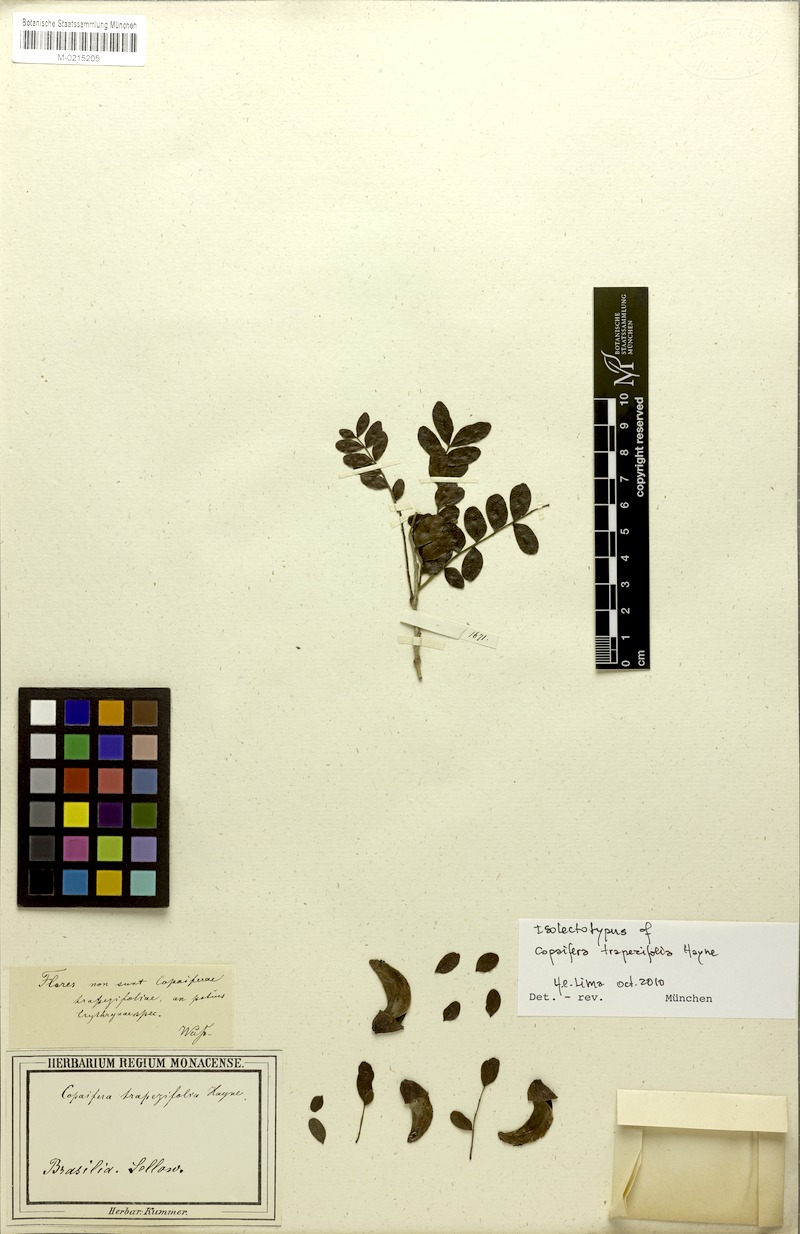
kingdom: Plantae
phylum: Tracheophyta
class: Magnoliopsida
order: Fabales
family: Fabaceae
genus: Copaifera
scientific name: Copaifera trapezifolia
